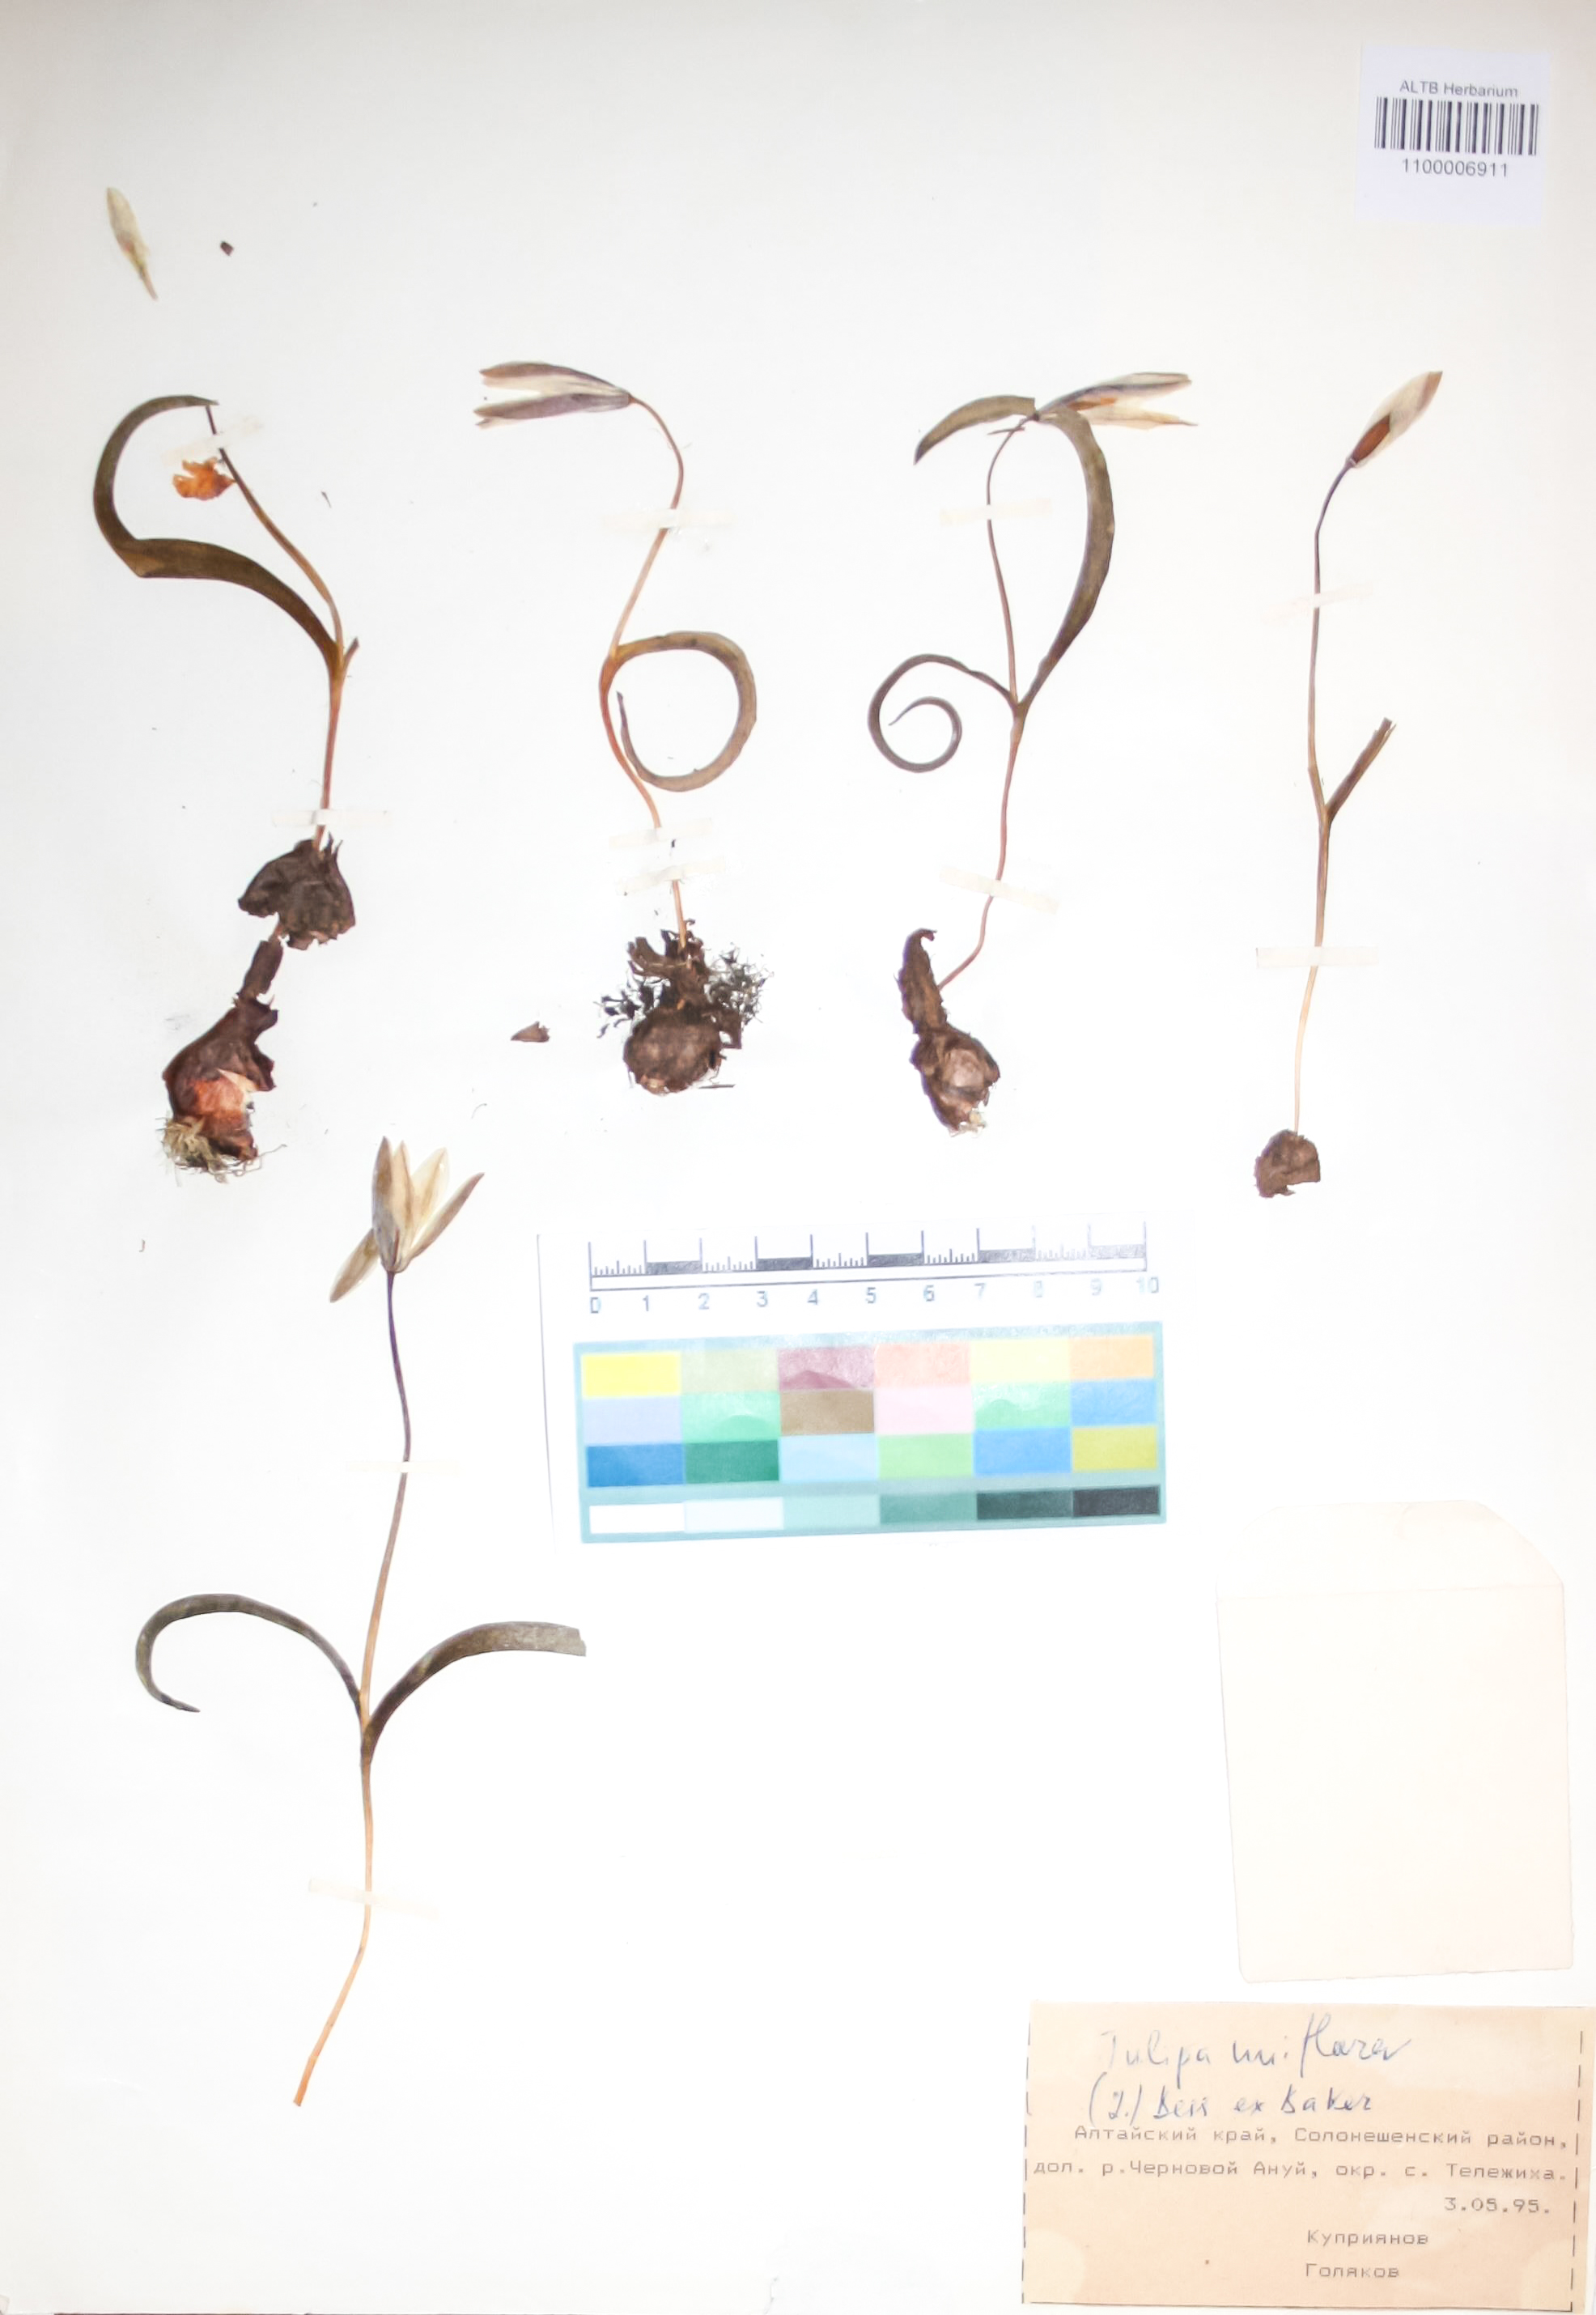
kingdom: Plantae
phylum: Tracheophyta
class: Liliopsida
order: Liliales
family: Liliaceae
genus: Tulipa
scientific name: Tulipa uniflora
